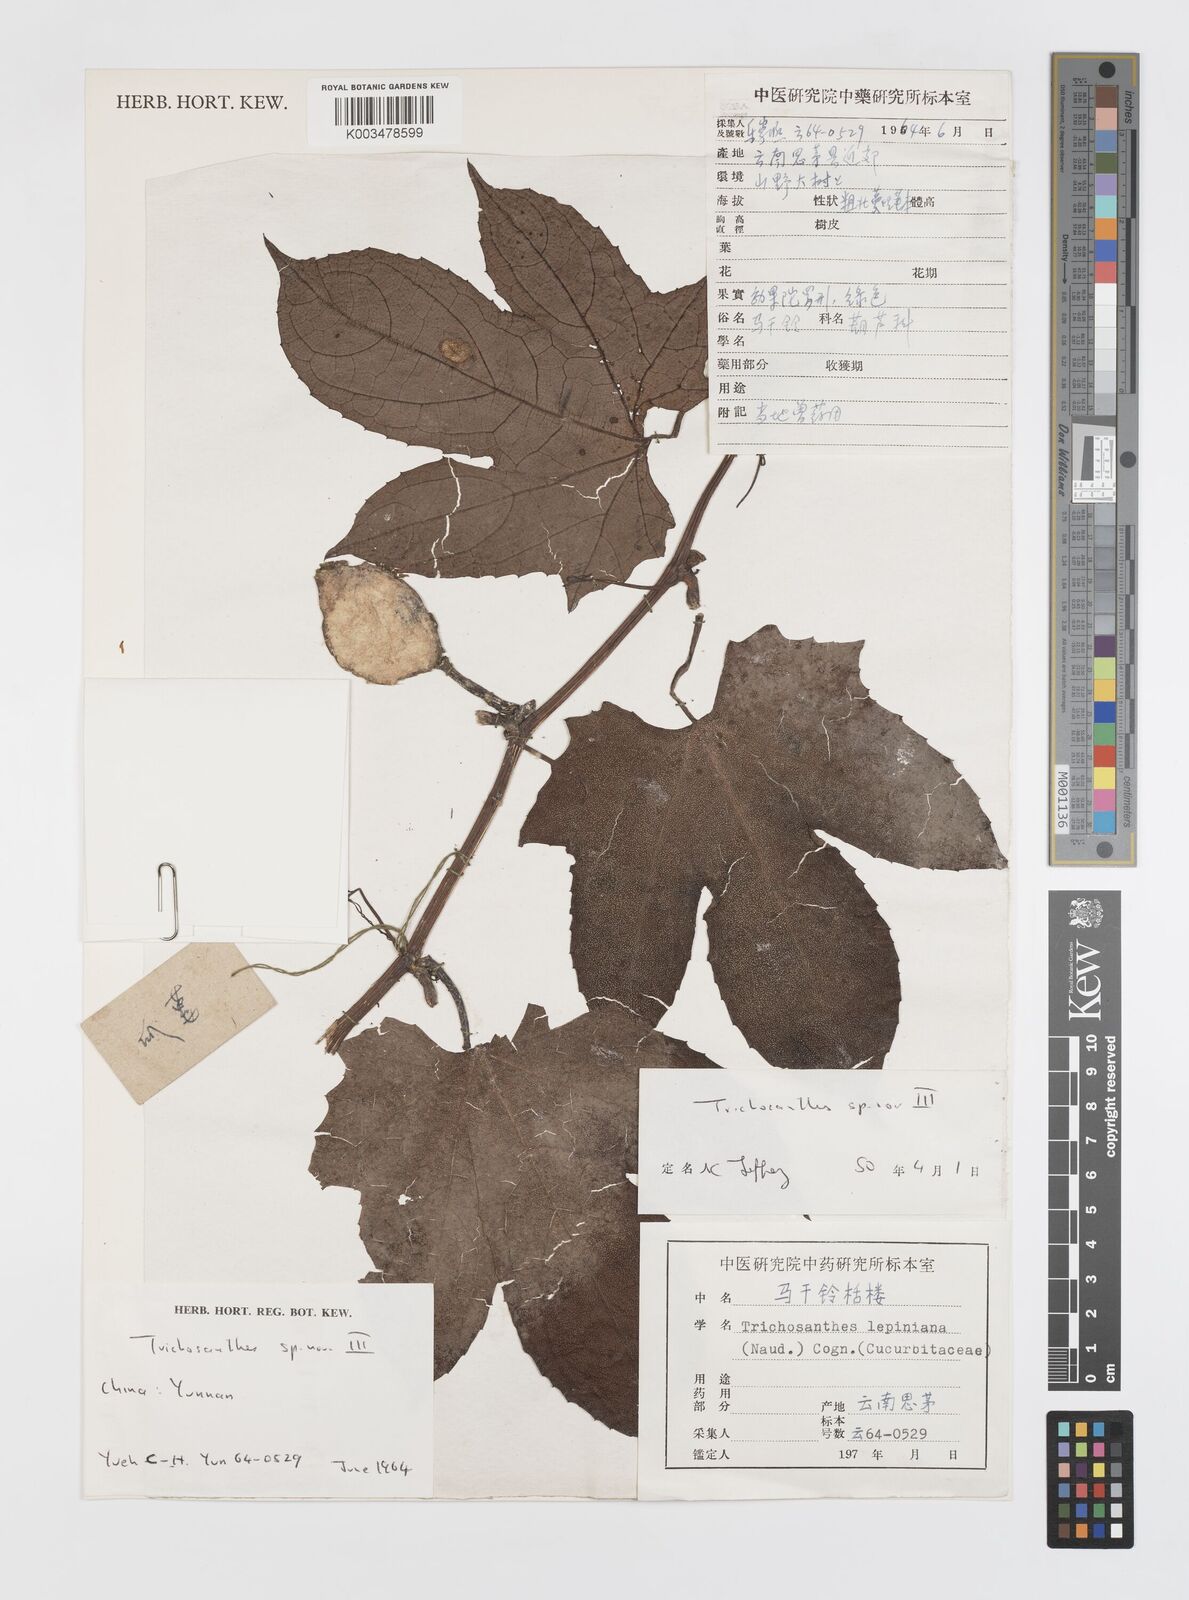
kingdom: Plantae
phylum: Tracheophyta
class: Magnoliopsida
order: Cucurbitales
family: Cucurbitaceae
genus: Trichosanthes
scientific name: Trichosanthes
